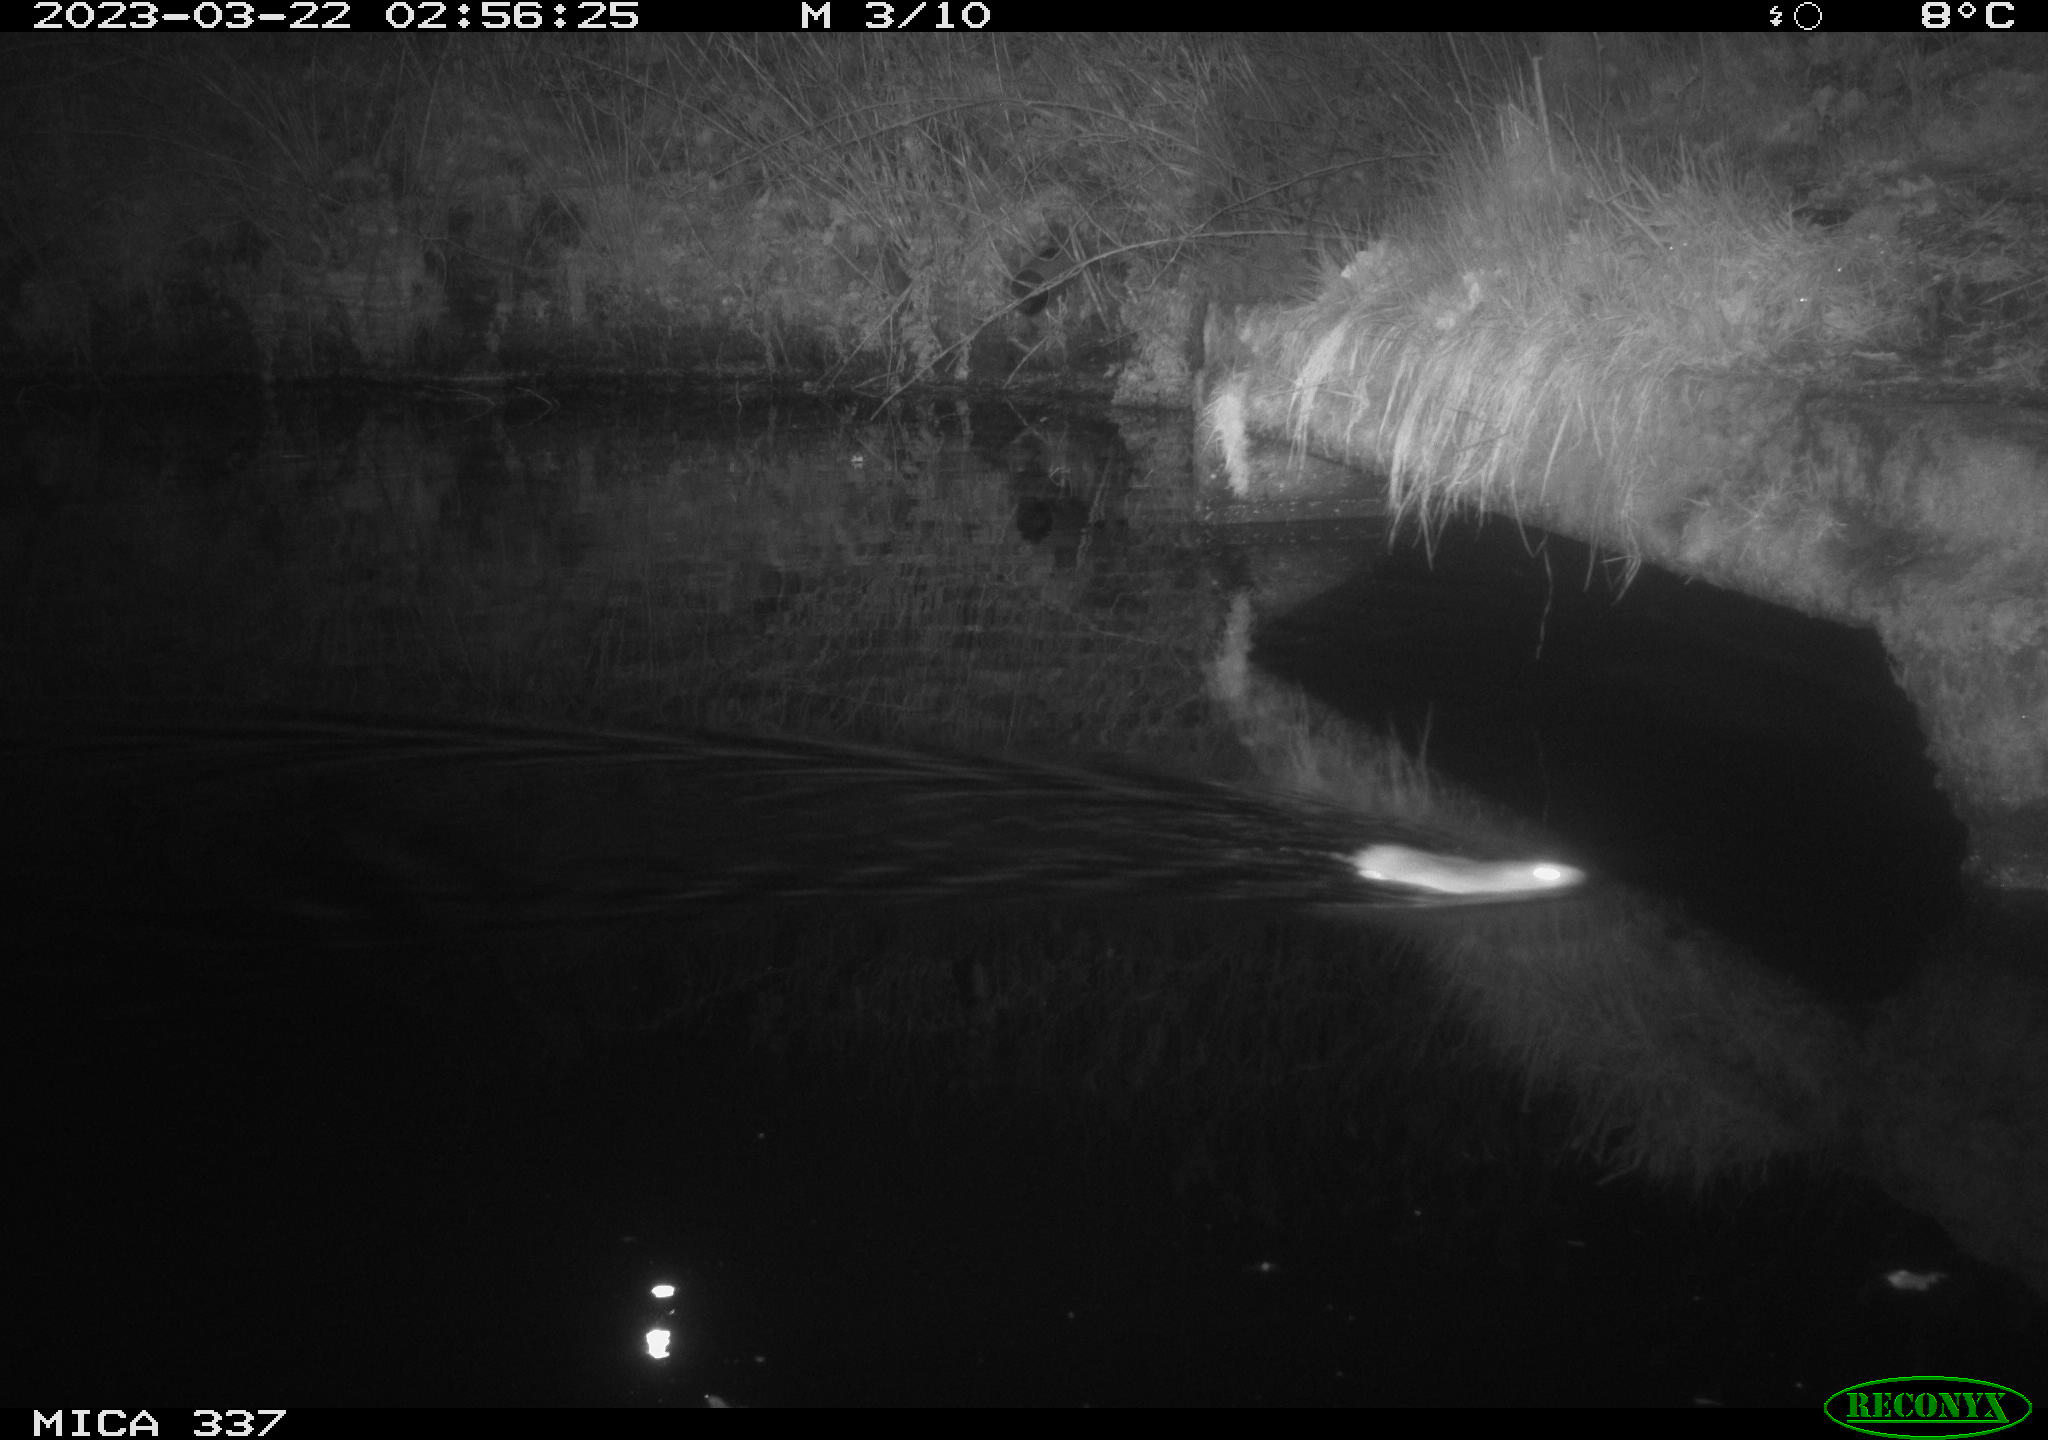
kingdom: Animalia
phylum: Chordata
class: Mammalia
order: Rodentia
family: Cricetidae
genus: Ondatra
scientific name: Ondatra zibethicus
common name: Muskrat
